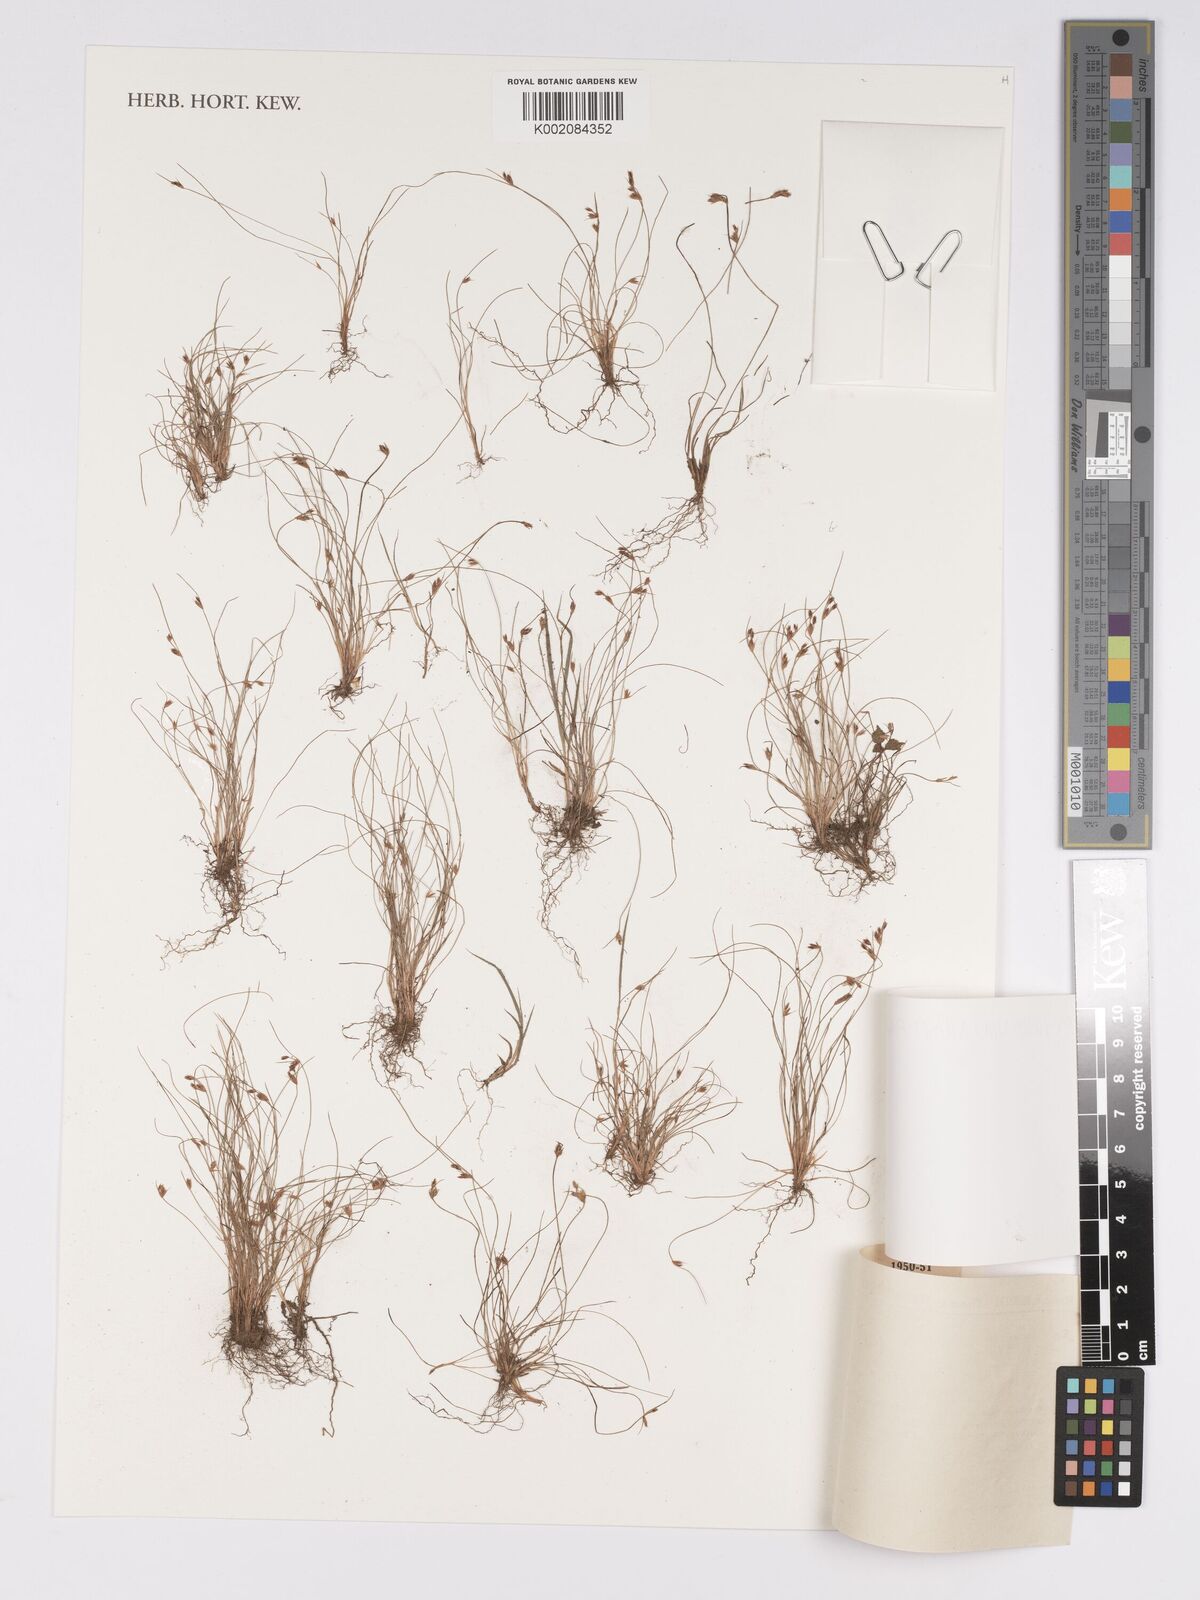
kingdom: Plantae
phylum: Tracheophyta
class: Liliopsida
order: Poales
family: Cyperaceae
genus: Bulbostylis
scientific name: Bulbostylis thouarsii
